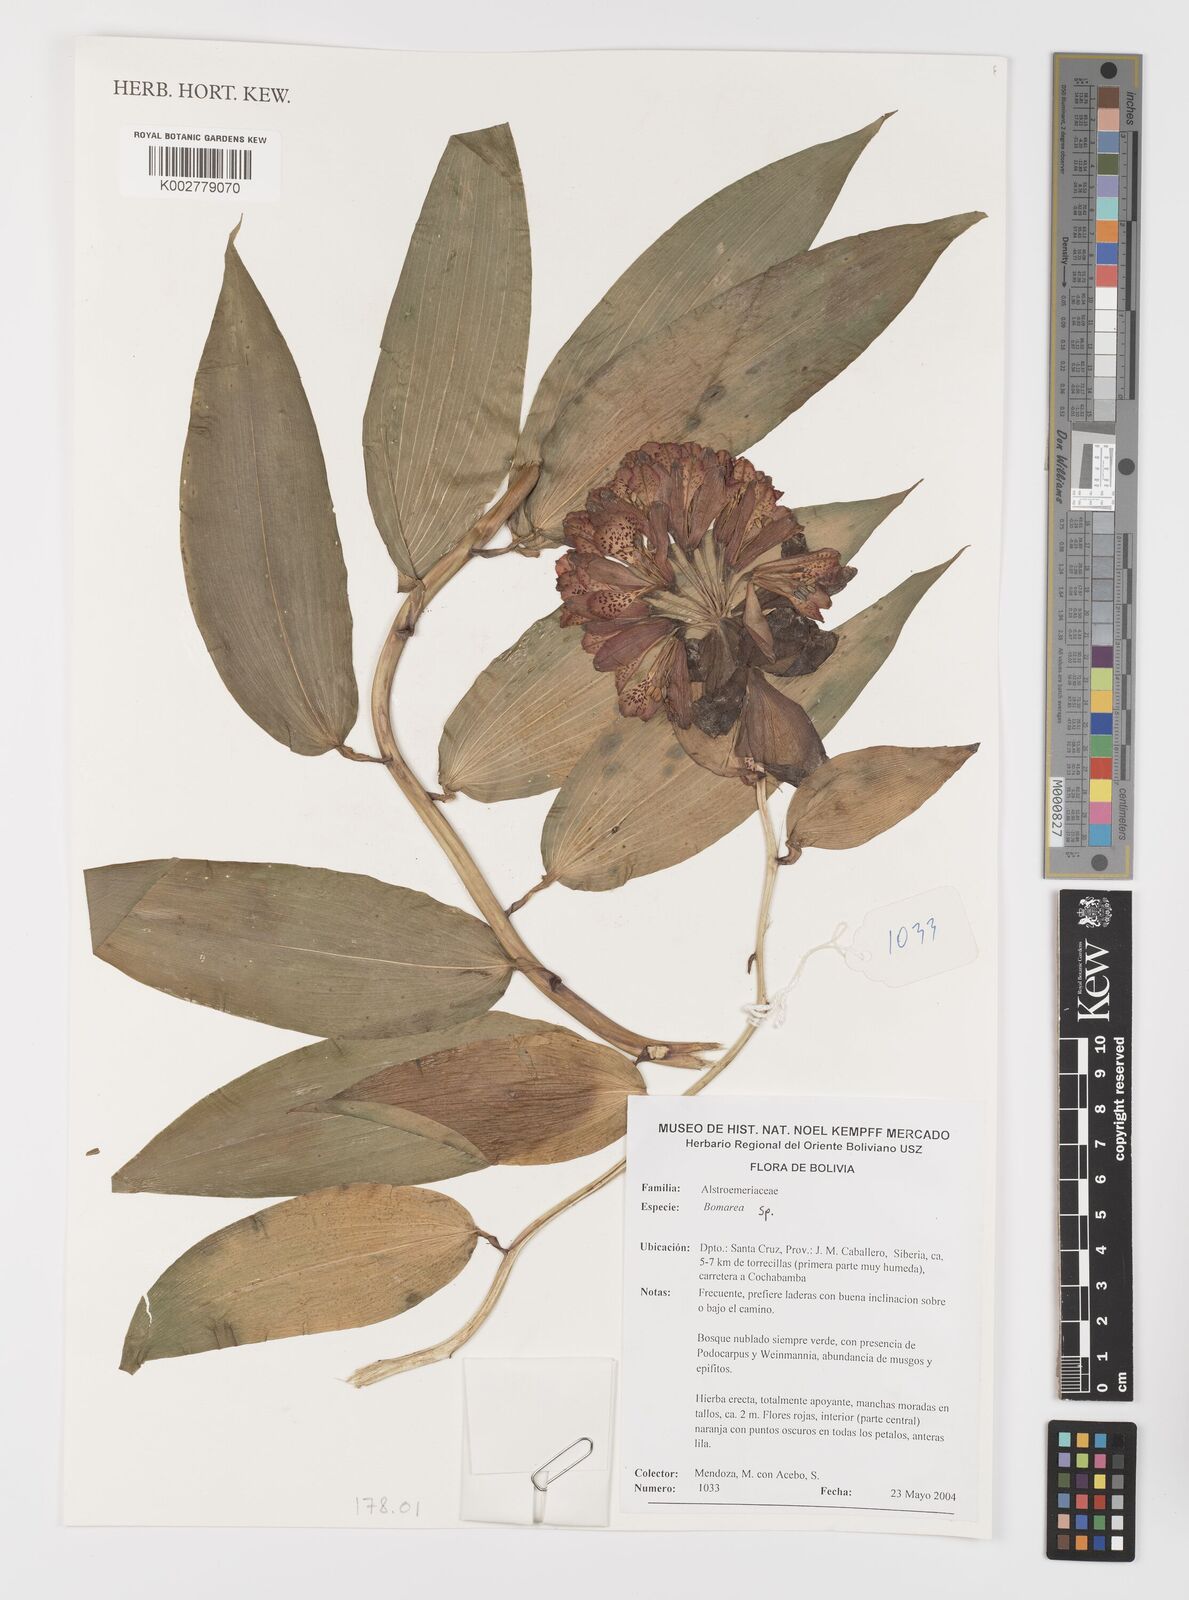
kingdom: Plantae
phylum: Tracheophyta
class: Liliopsida
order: Liliales
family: Alstroemeriaceae
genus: Bomarea
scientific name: Bomarea
